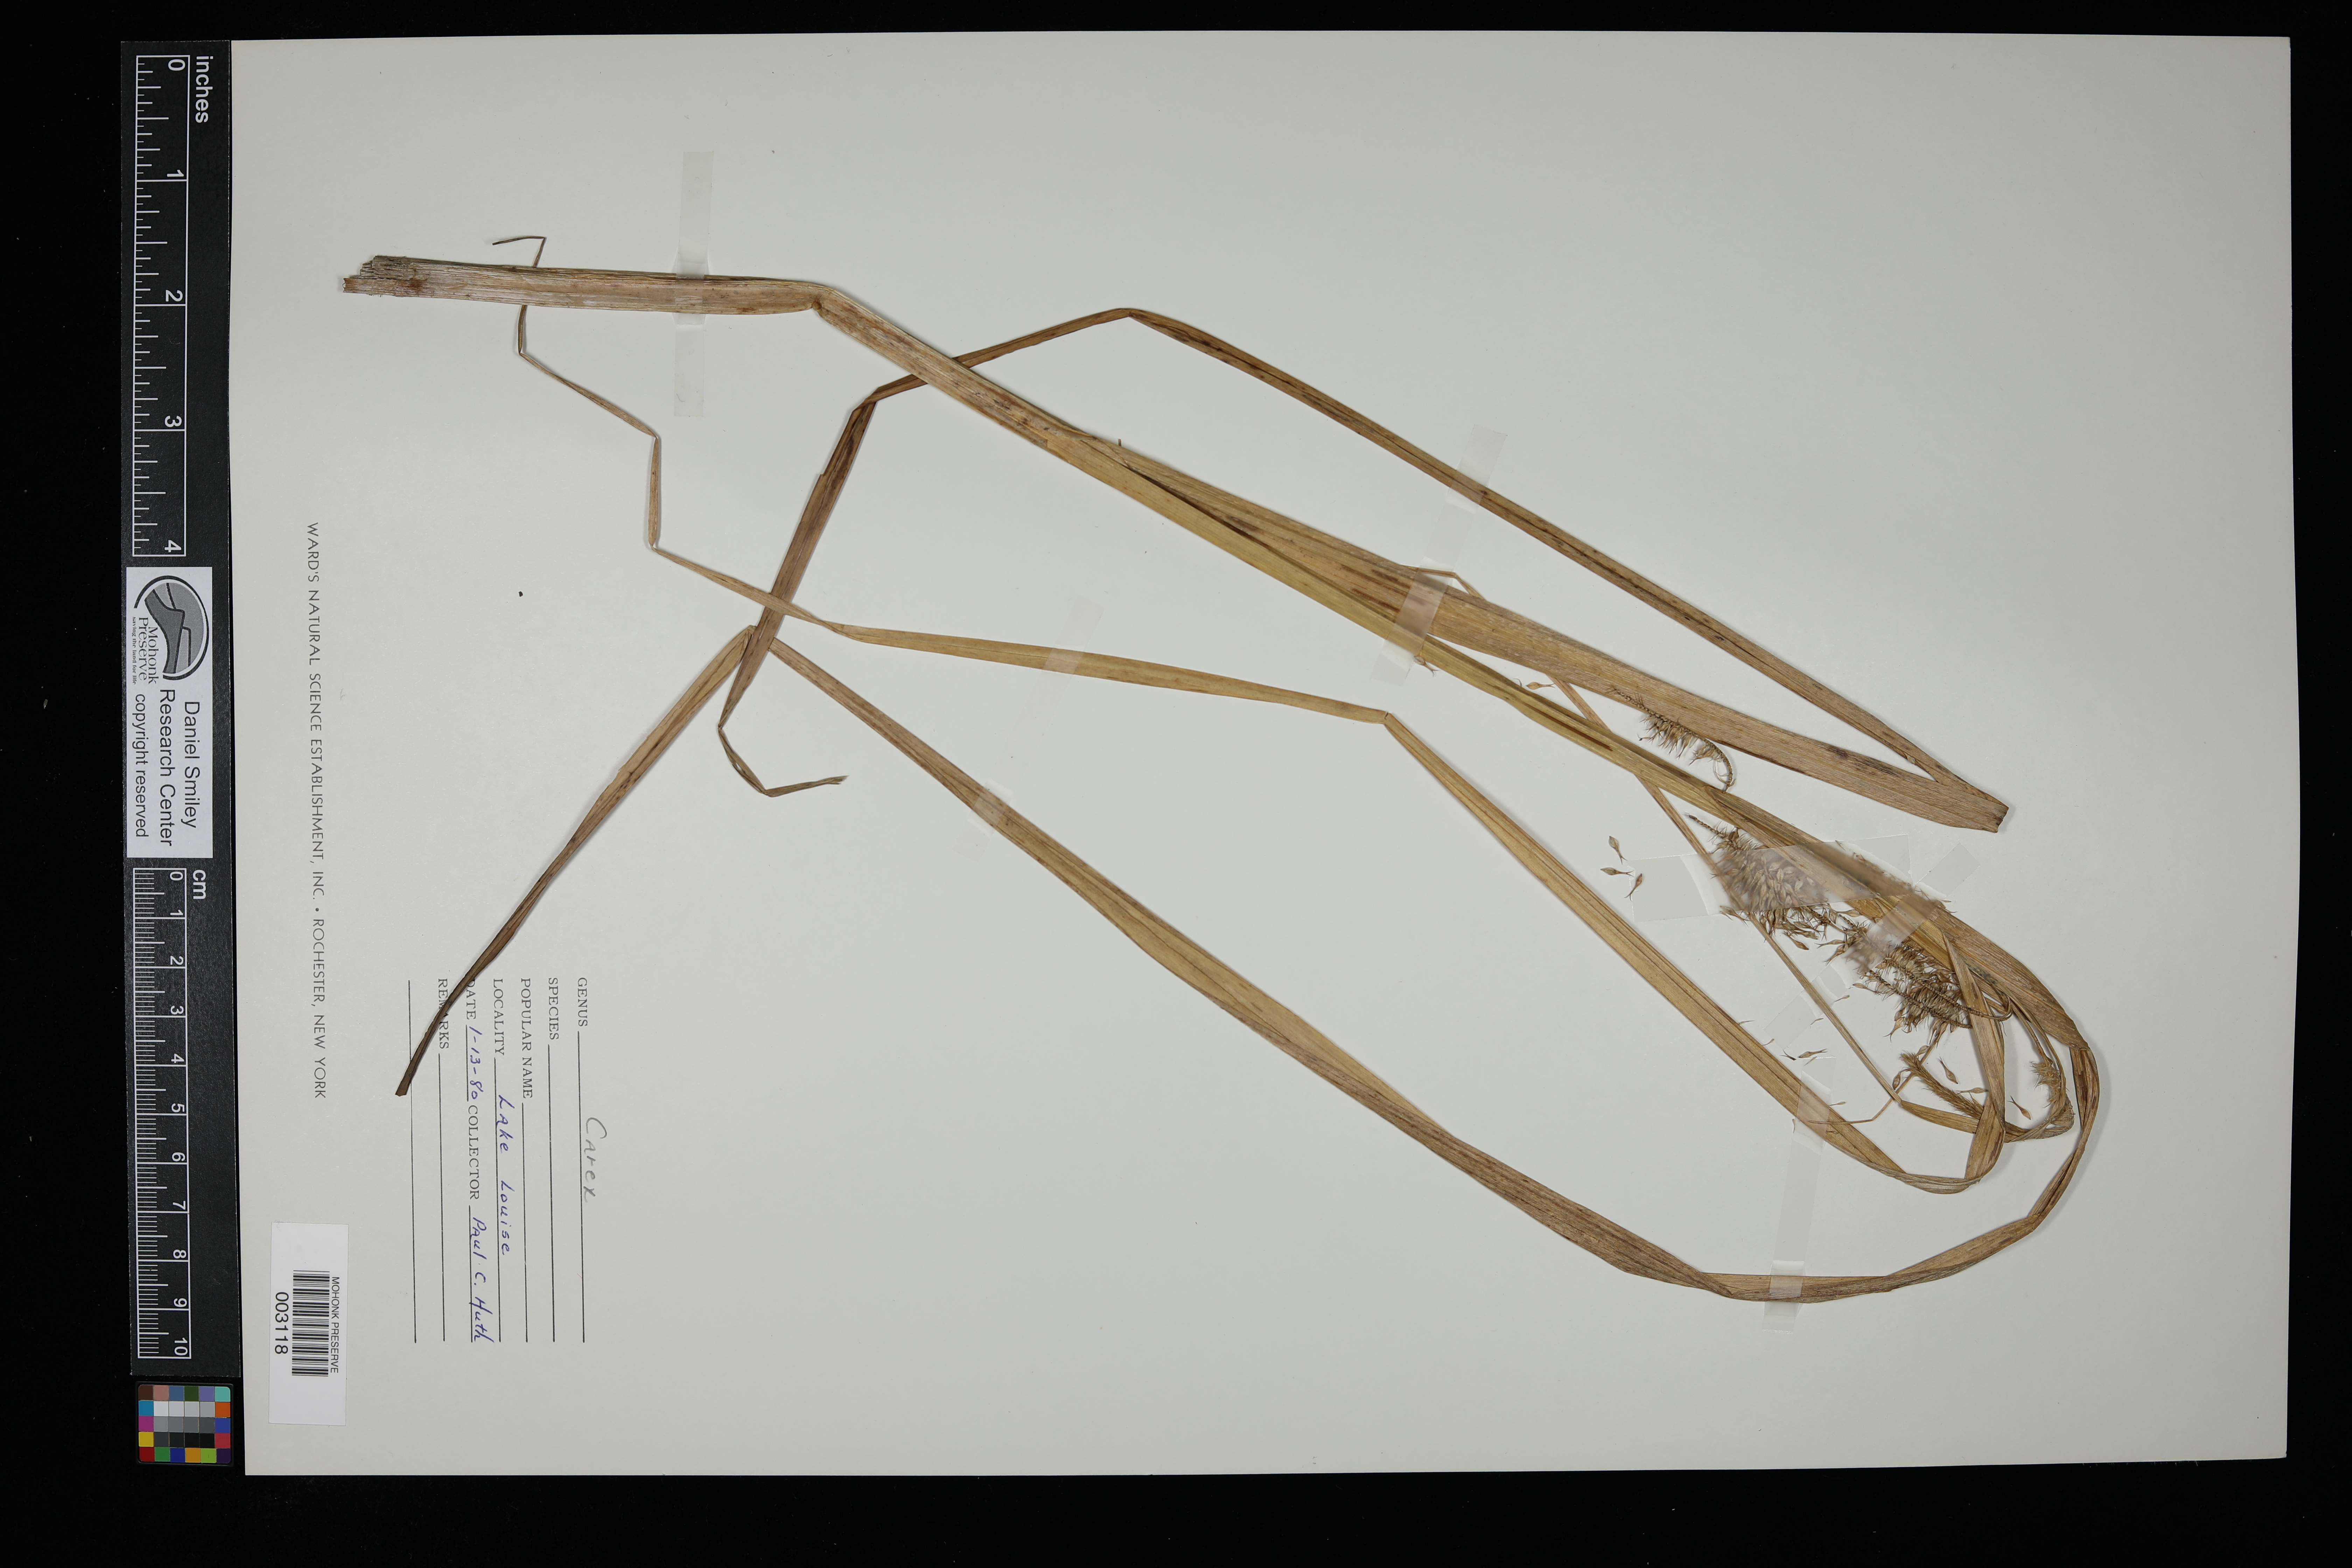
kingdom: Plantae
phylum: Tracheophyta
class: Liliopsida
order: Poales
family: Cyperaceae
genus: Carex
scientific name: Carex
